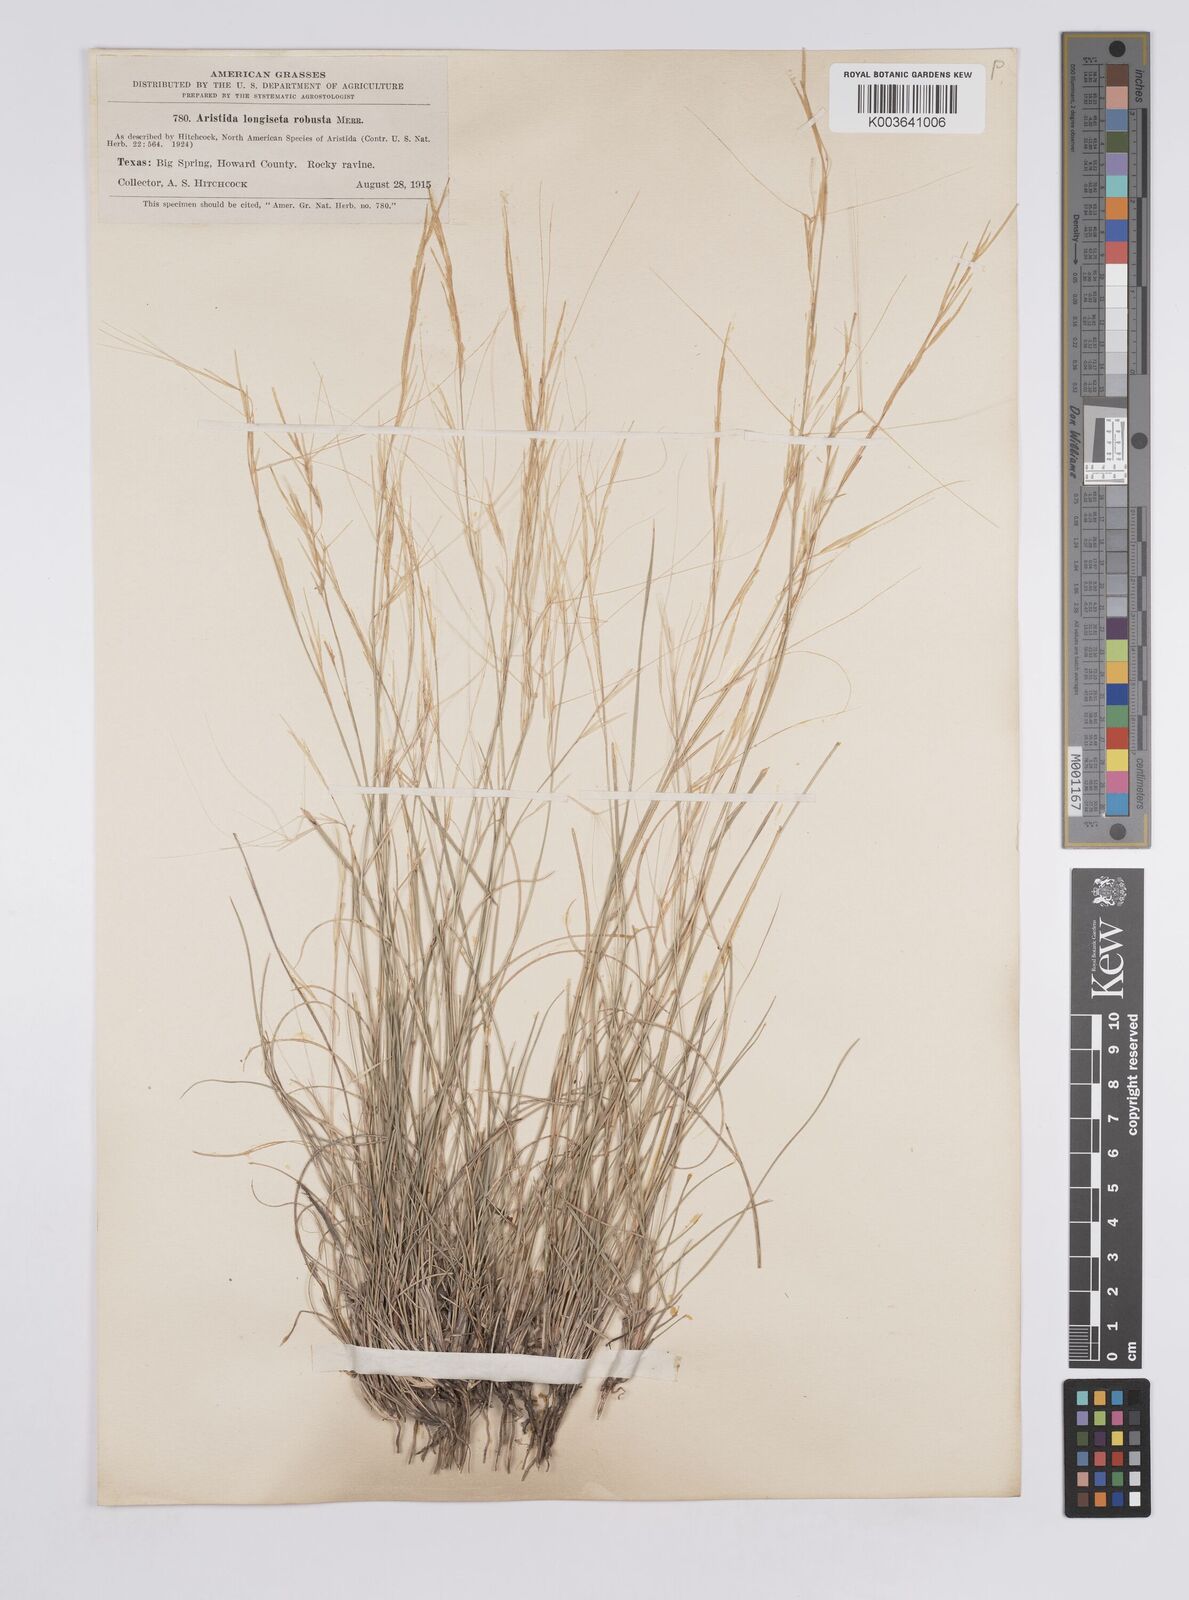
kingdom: Plantae
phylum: Tracheophyta
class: Liliopsida
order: Poales
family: Poaceae
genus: Aristida
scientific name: Aristida purpurea
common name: Purple threeawn
